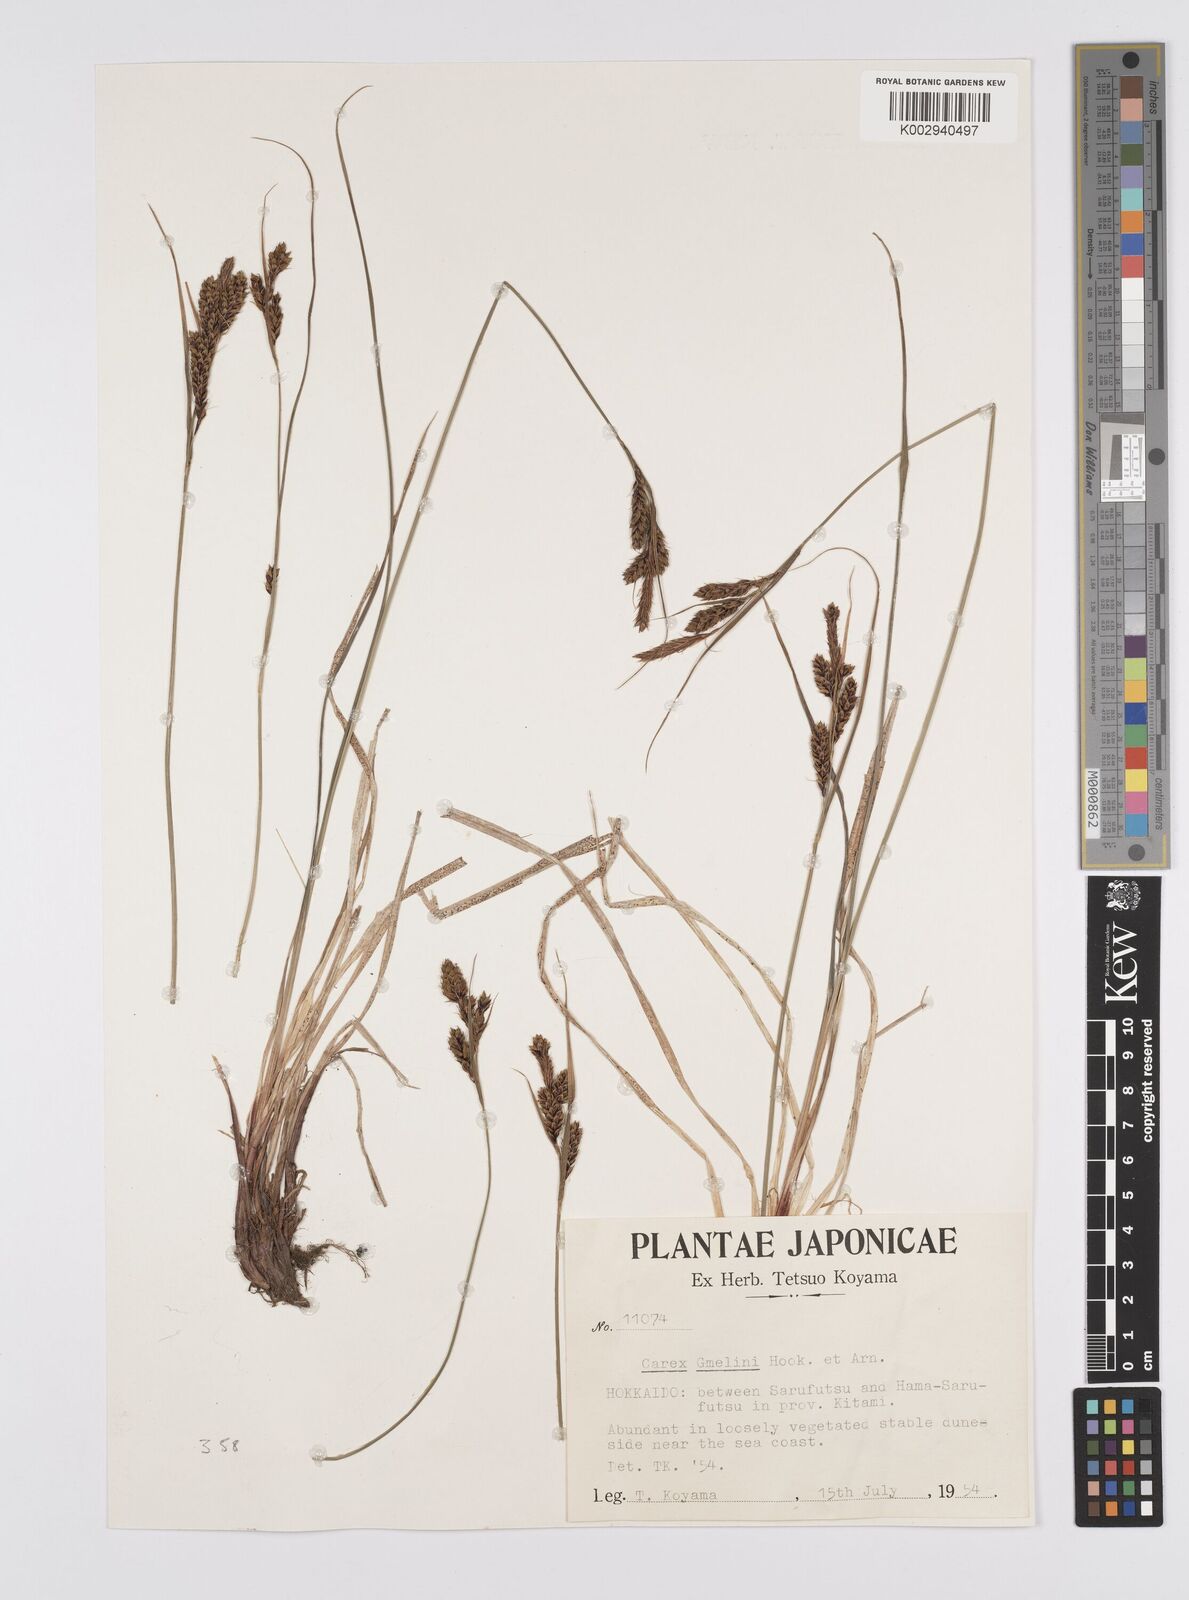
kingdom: Plantae
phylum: Tracheophyta
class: Liliopsida
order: Poales
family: Cyperaceae
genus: Carex
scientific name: Carex gmelinii
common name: Gmelin's sedge
